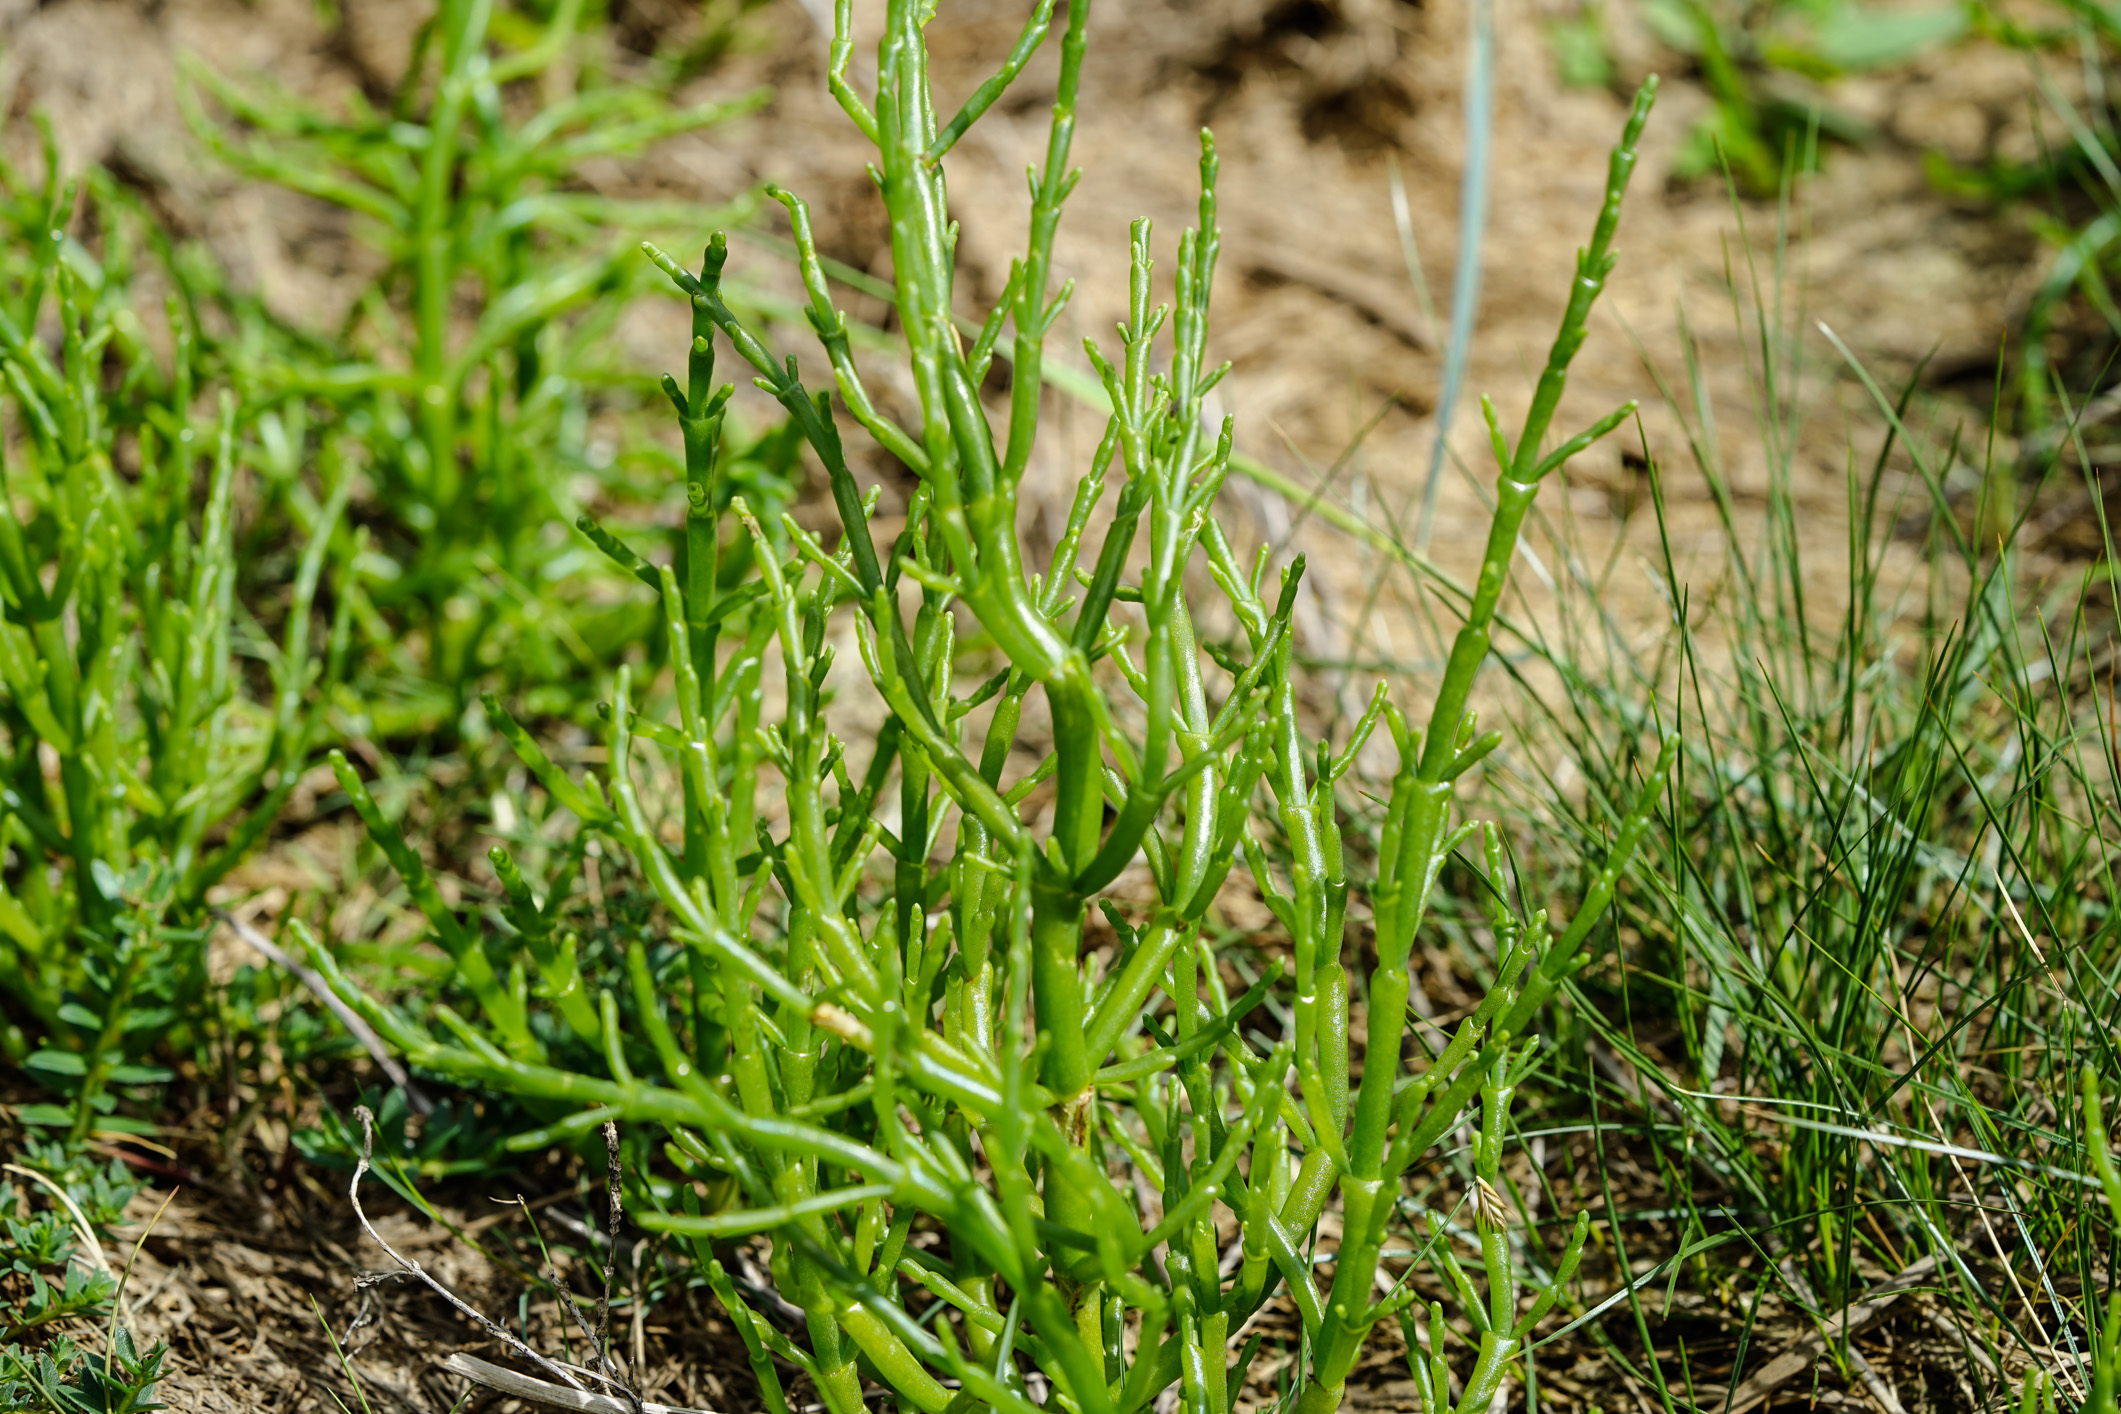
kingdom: Plantae
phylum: Tracheophyta
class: Magnoliopsida
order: Caryophyllales
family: Amaranthaceae
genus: Salicornia
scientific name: Salicornia europaea
